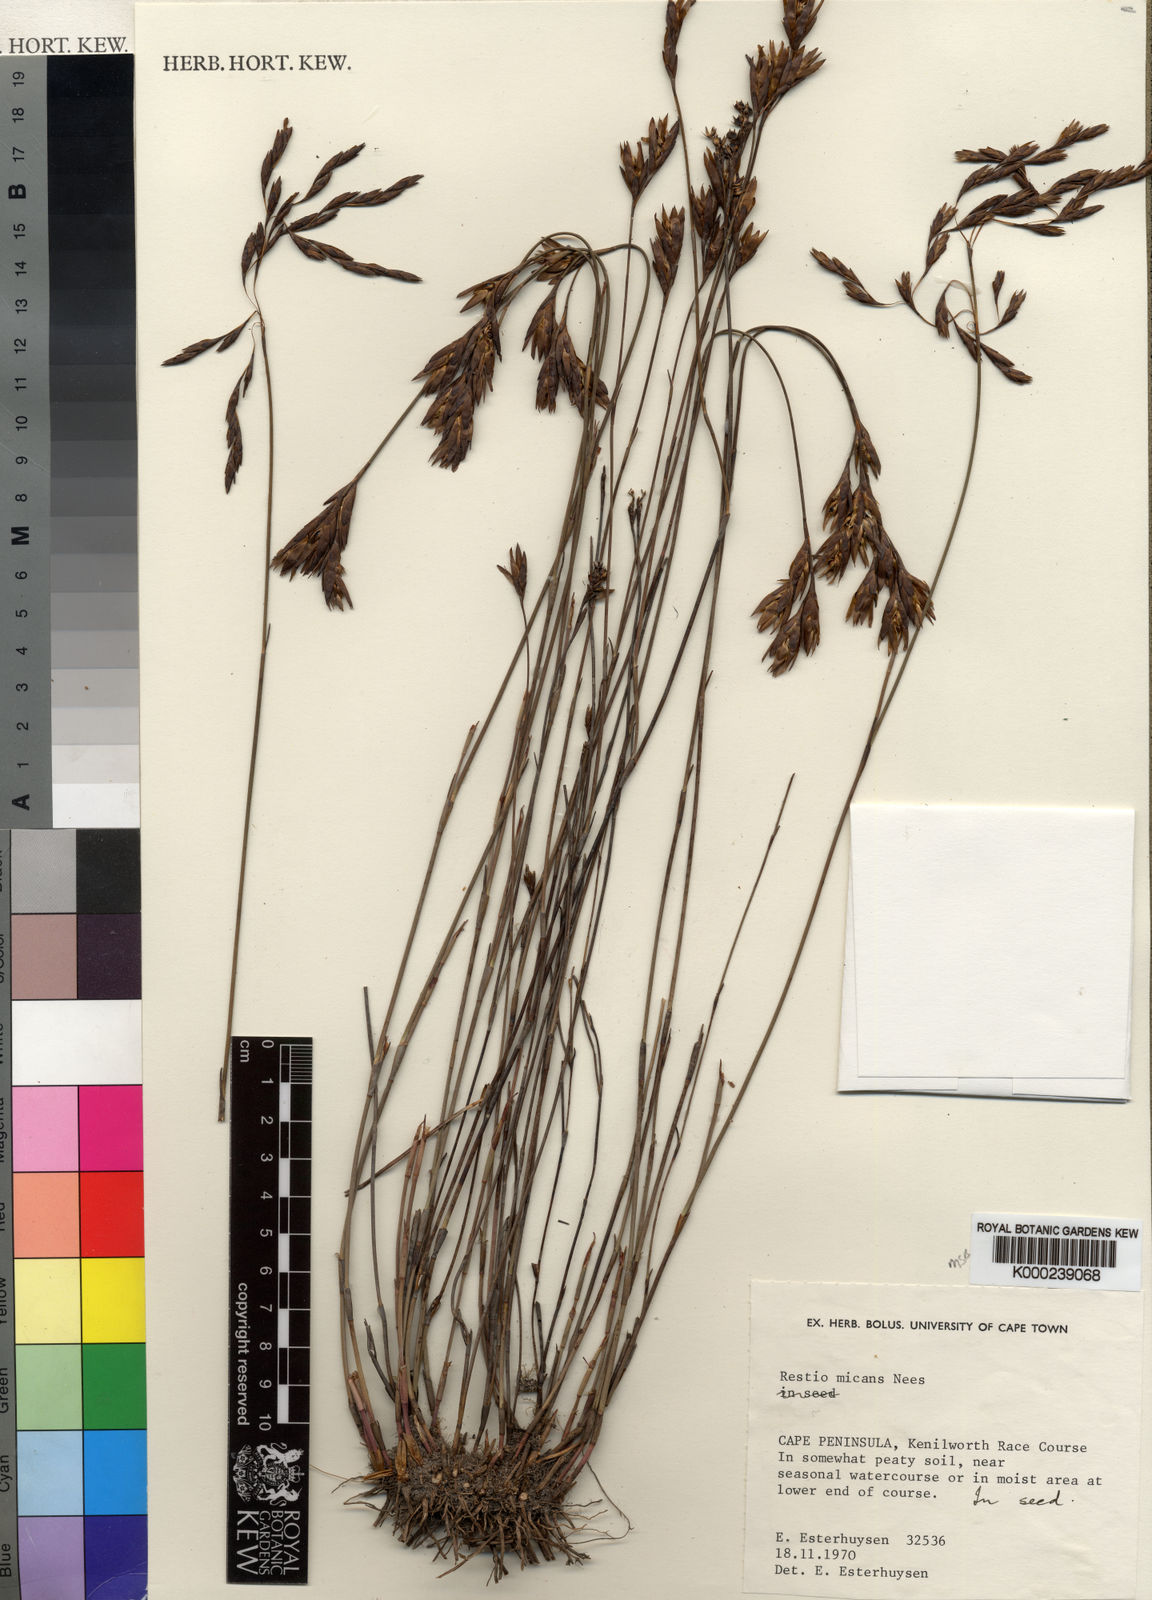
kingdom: Plantae
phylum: Tracheophyta
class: Liliopsida
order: Poales
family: Restionaceae
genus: Restio
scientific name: Restio micans
